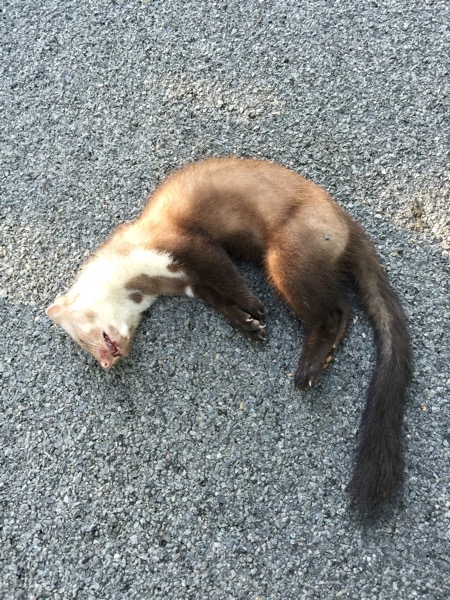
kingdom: Animalia
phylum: Chordata
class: Mammalia
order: Carnivora
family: Mustelidae
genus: Martes
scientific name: Martes foina
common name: Beech marten
